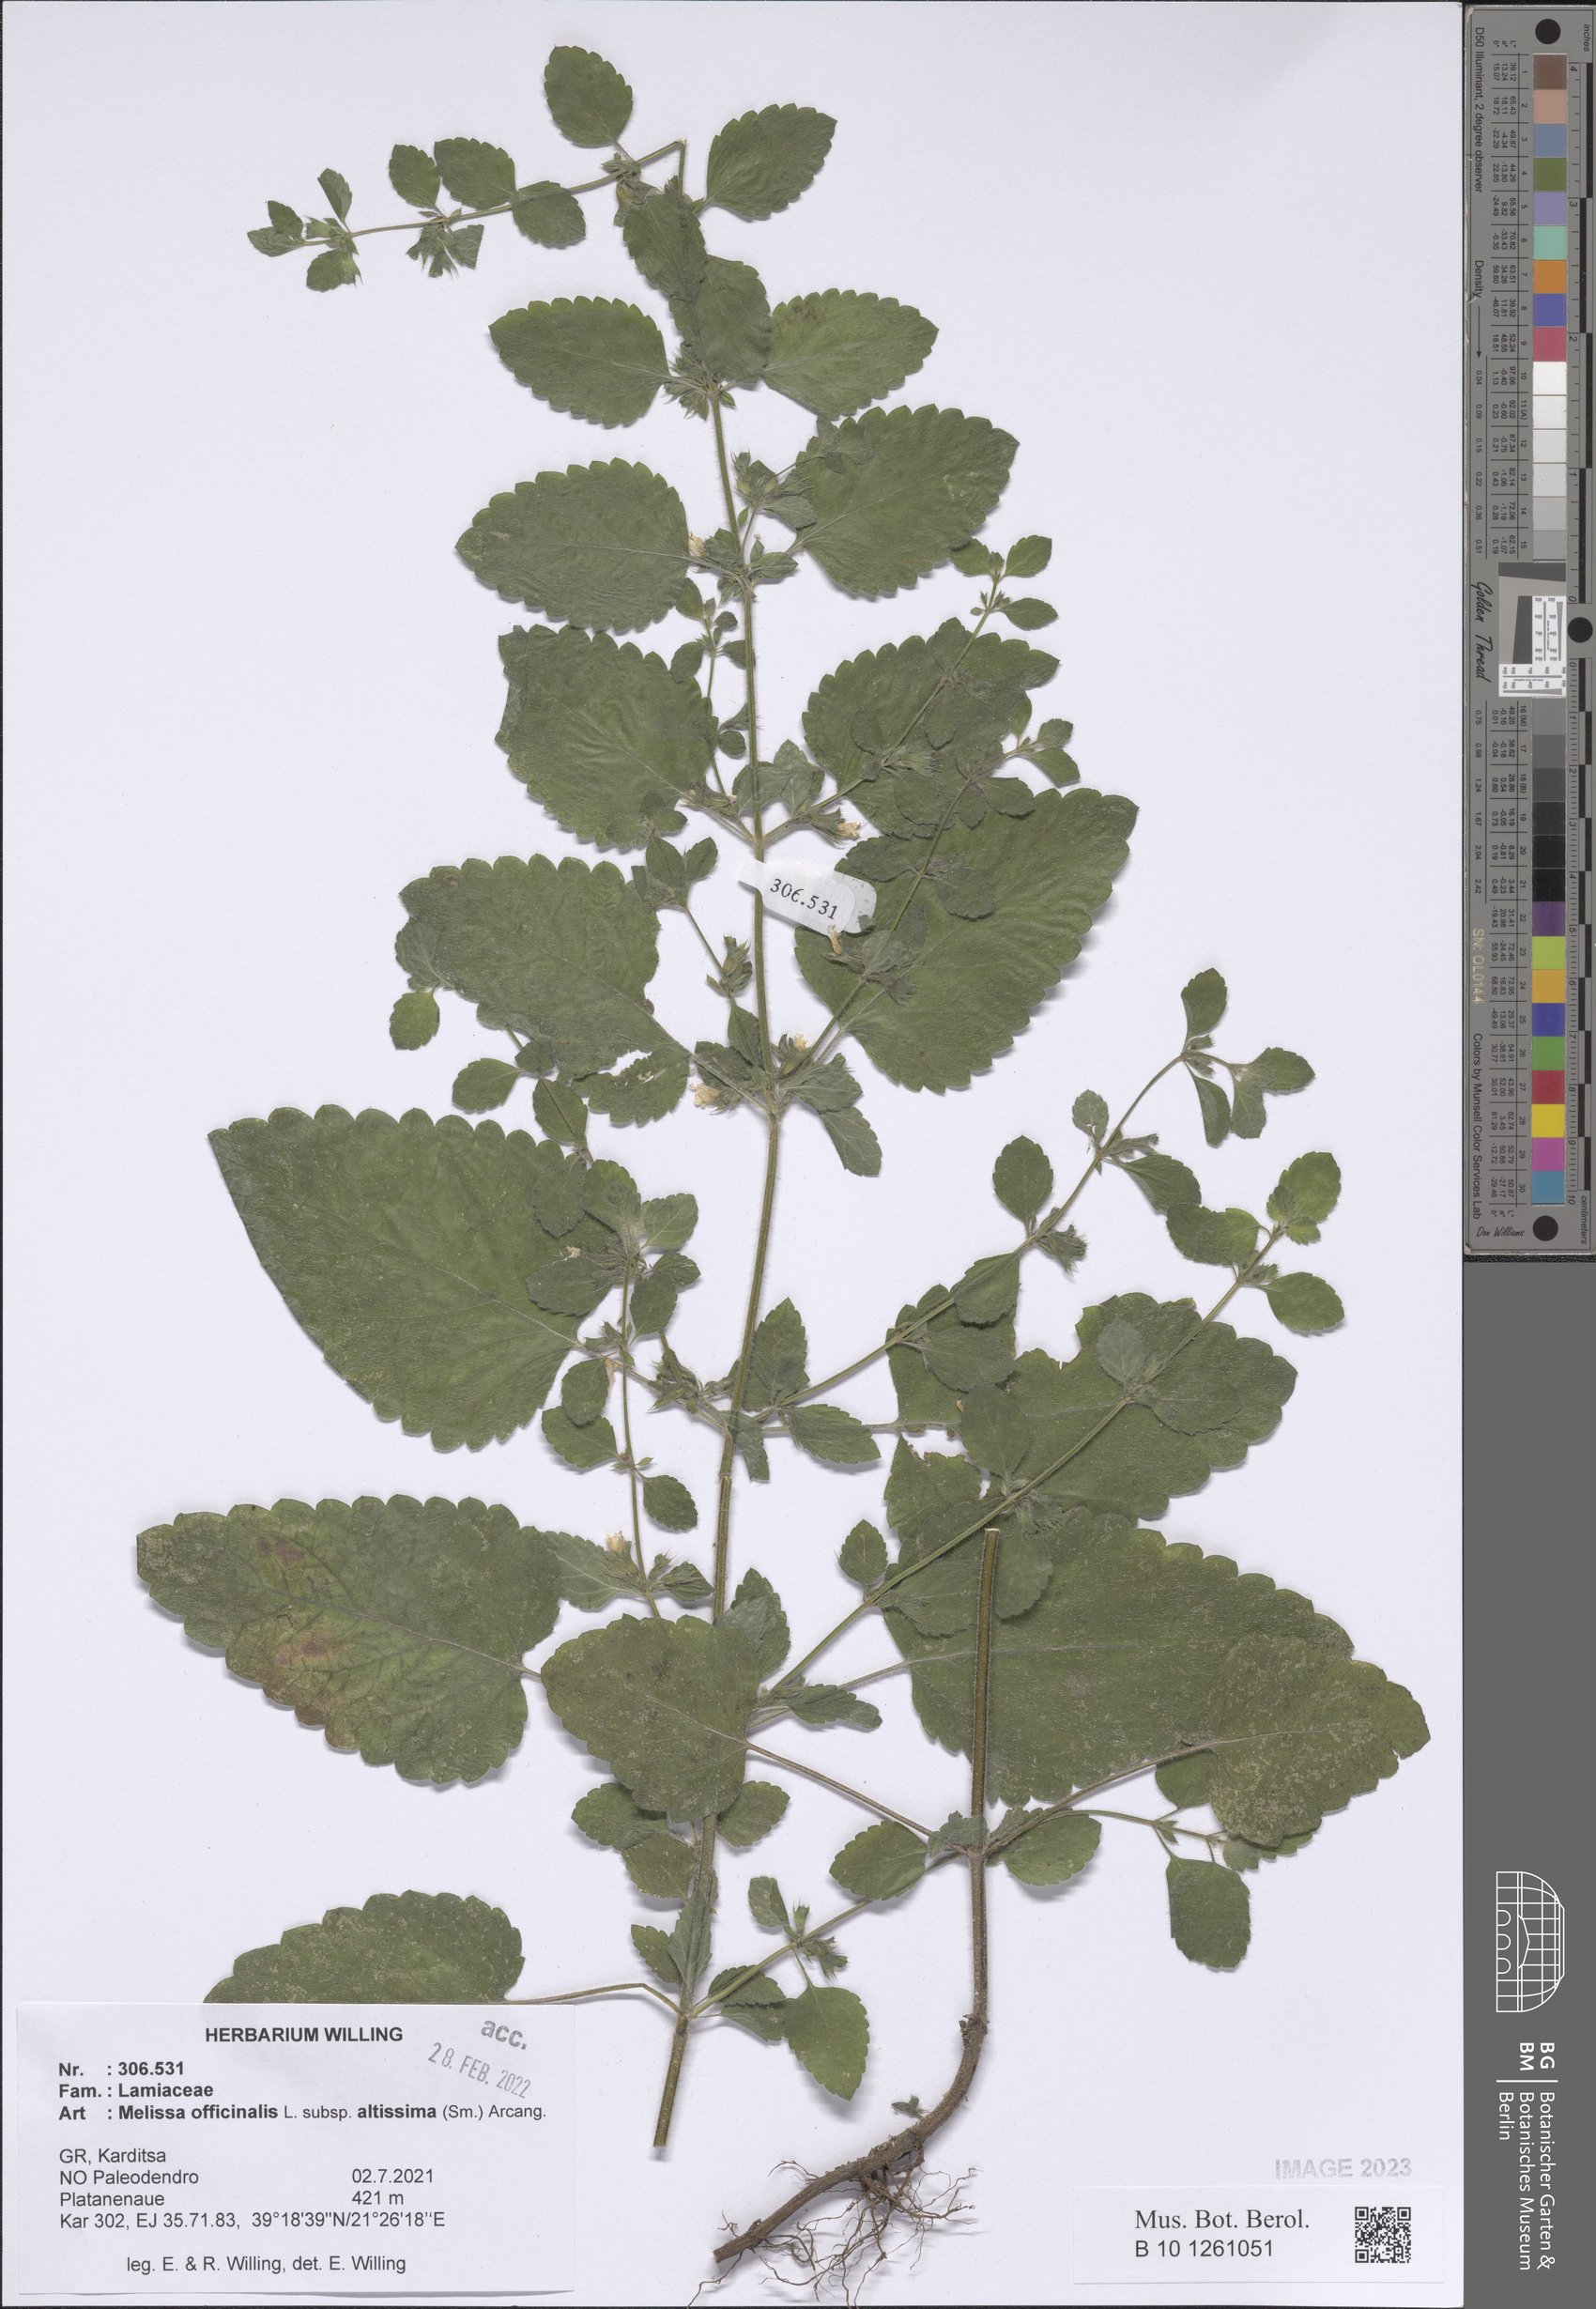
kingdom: Plantae
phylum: Tracheophyta
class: Magnoliopsida
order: Lamiales
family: Lamiaceae
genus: Melissa
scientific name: Melissa officinalis
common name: Balm
